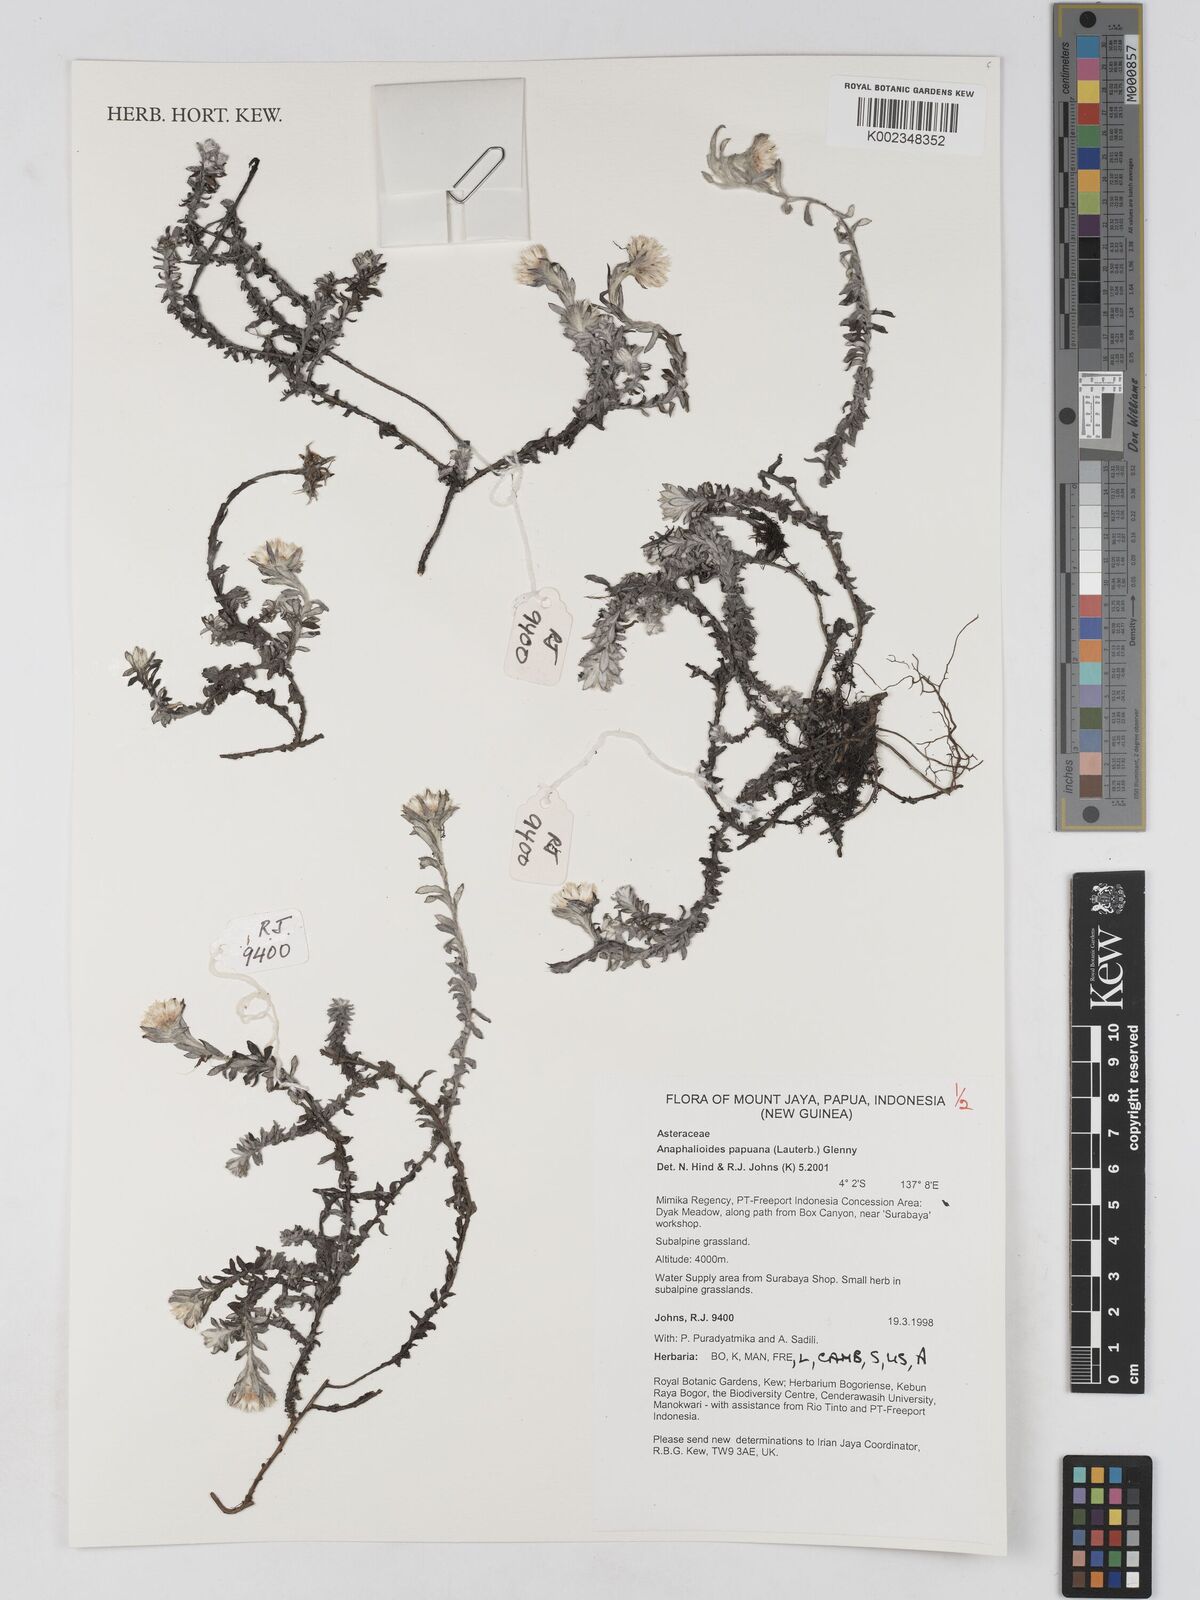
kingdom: Plantae
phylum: Tracheophyta
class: Magnoliopsida
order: Asterales
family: Asteraceae
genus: Anaphalioides
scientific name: Anaphalioides papuana
